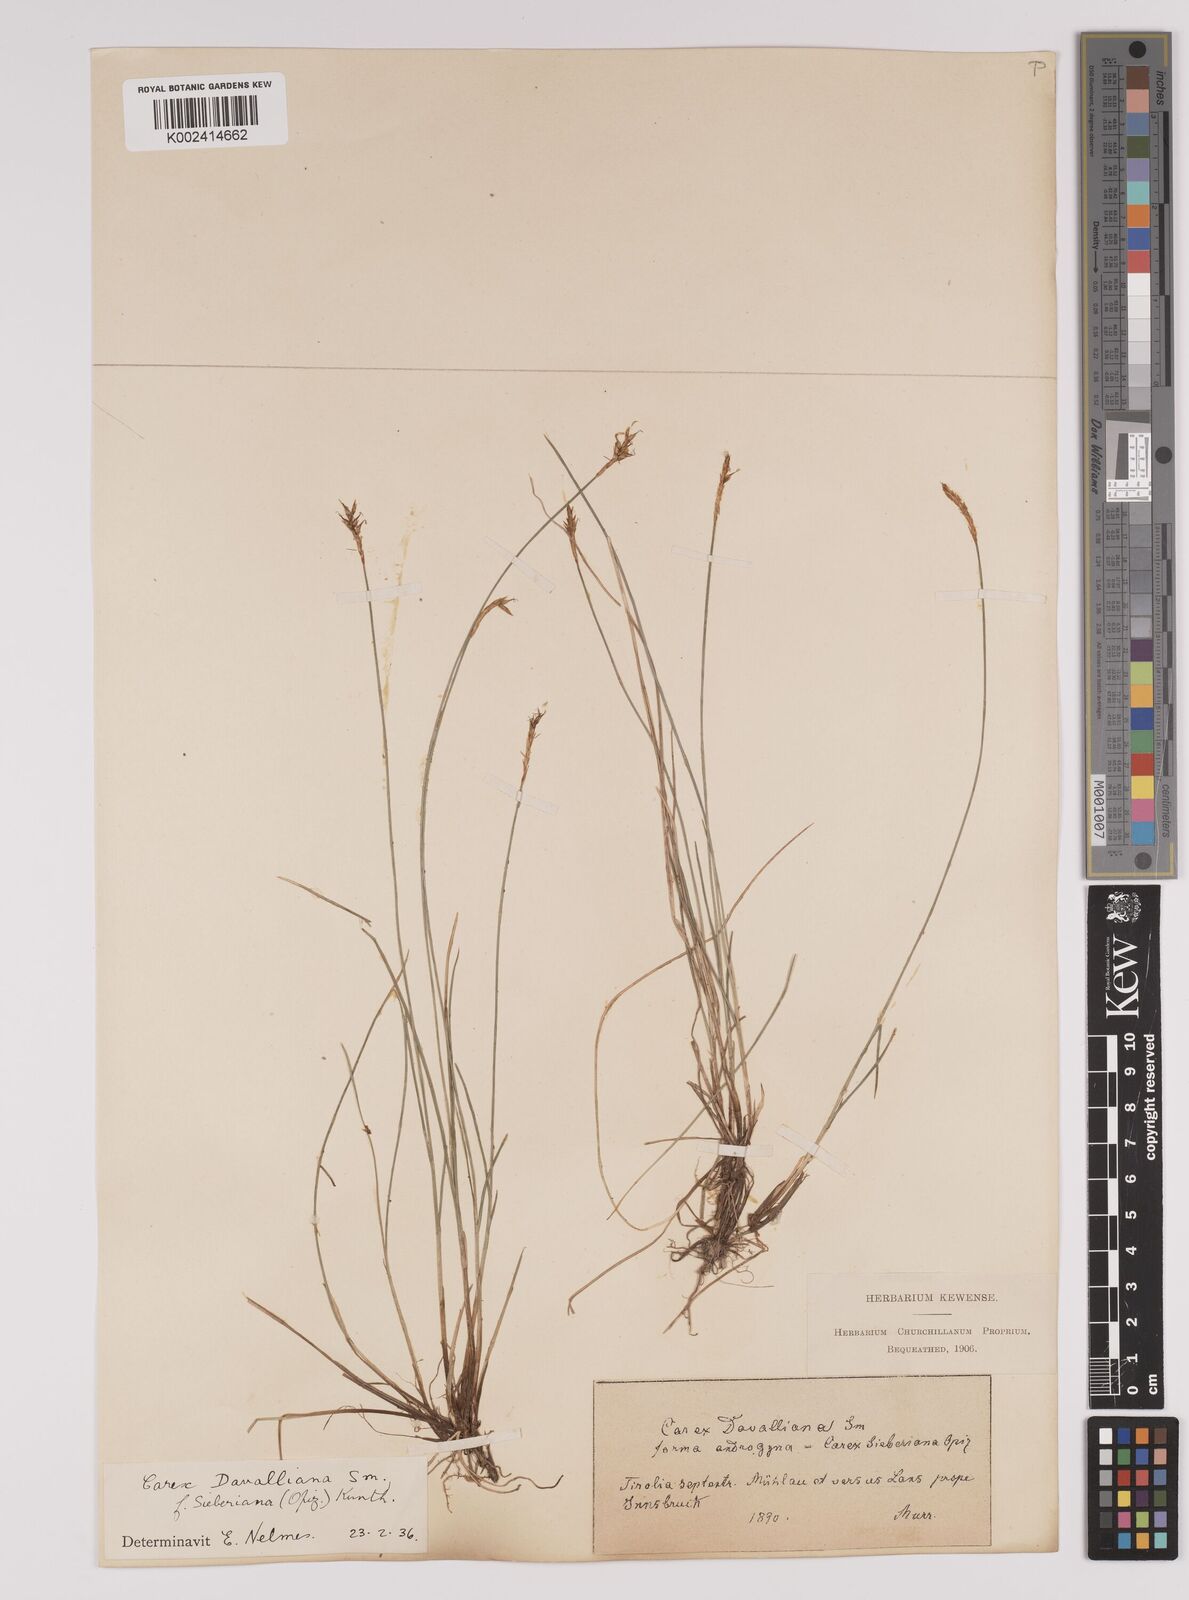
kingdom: Plantae
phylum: Tracheophyta
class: Liliopsida
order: Poales
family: Cyperaceae
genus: Carex
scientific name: Carex davalliana
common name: Davall's sedge
